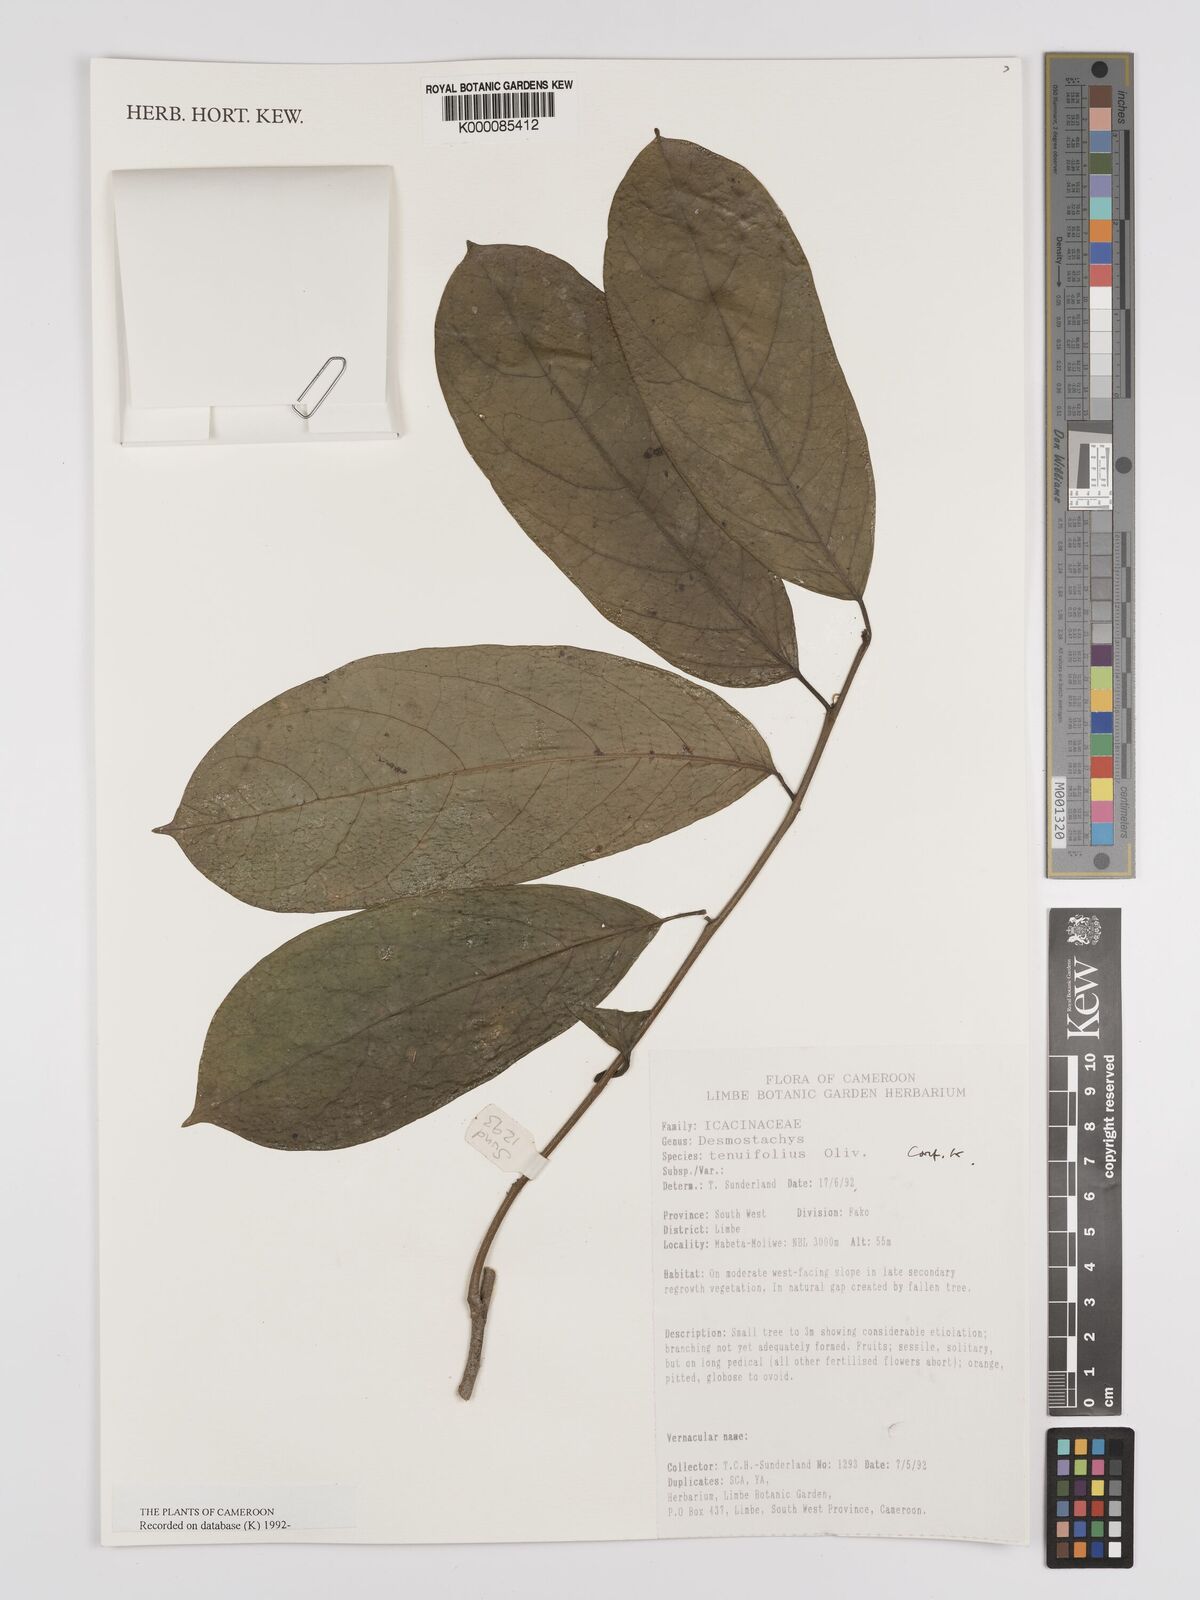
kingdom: Plantae
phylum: Tracheophyta
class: Magnoliopsida
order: Icacinales
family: Icacinaceae
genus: Vadensea
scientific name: Vadensea tenuifolia
